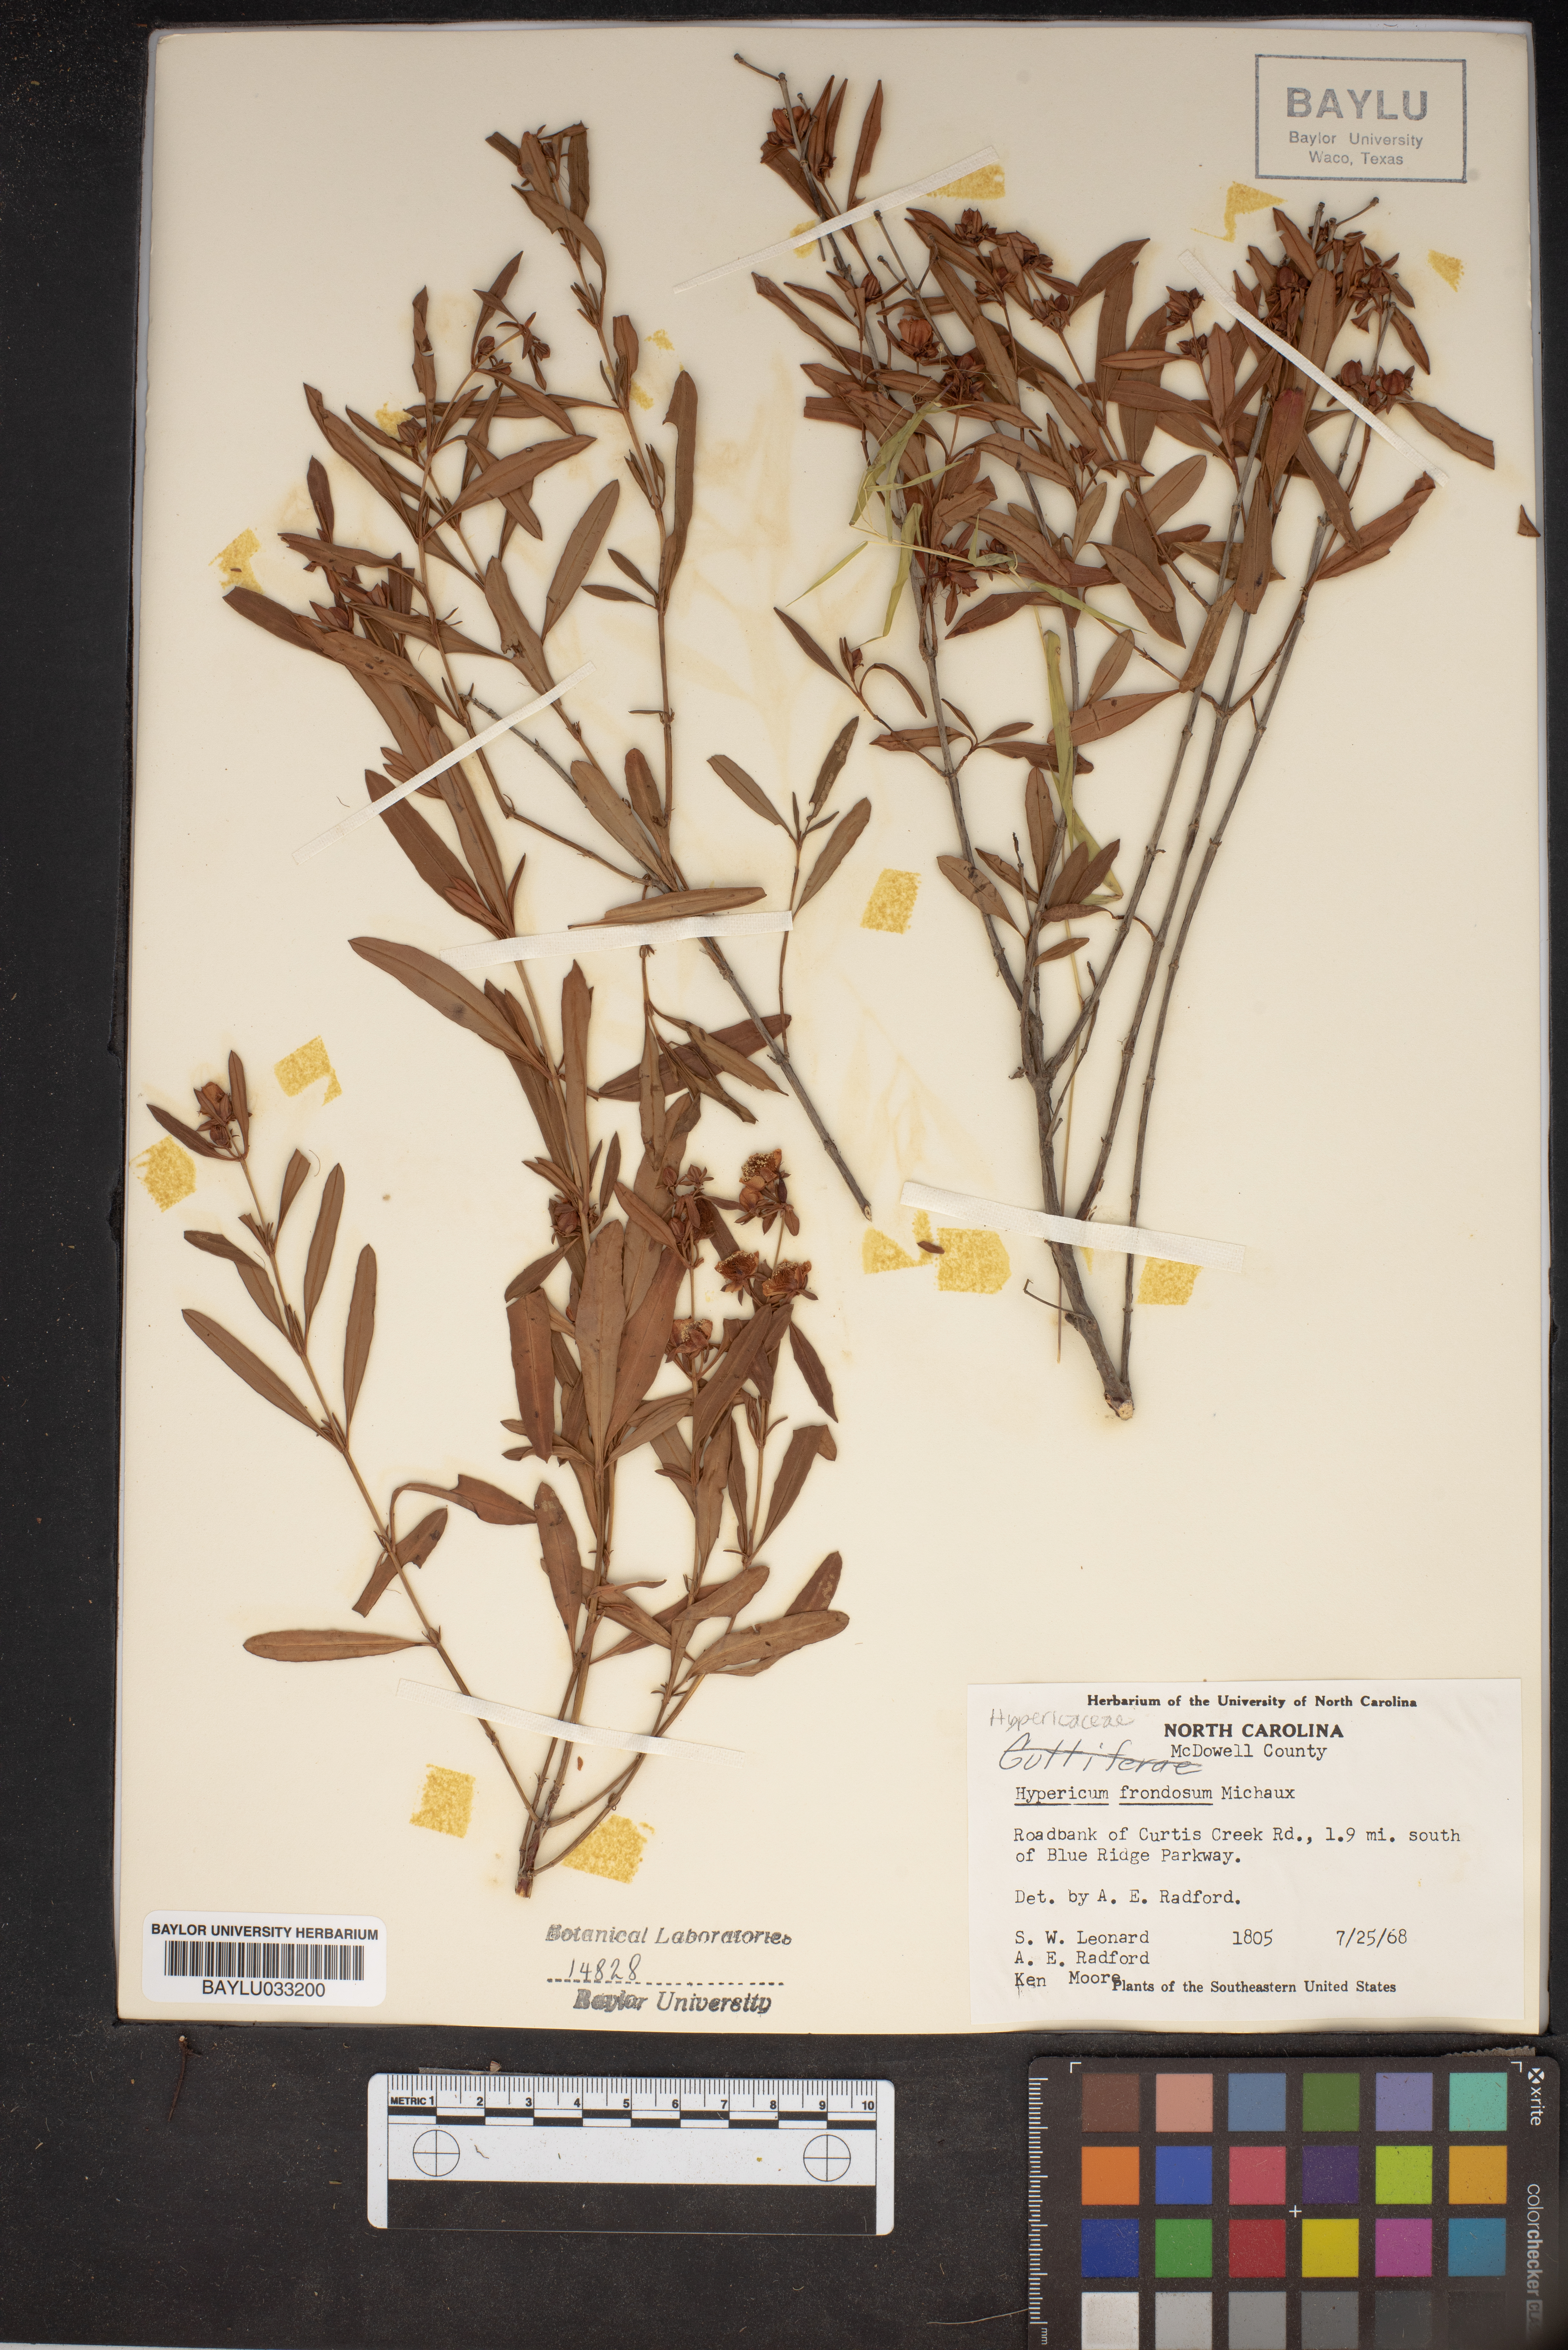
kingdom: Plantae
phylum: Tracheophyta
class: Magnoliopsida
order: Malpighiales
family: Hypericaceae
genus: Hypericum
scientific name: Hypericum frondosum
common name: Golden st. john's-wort
